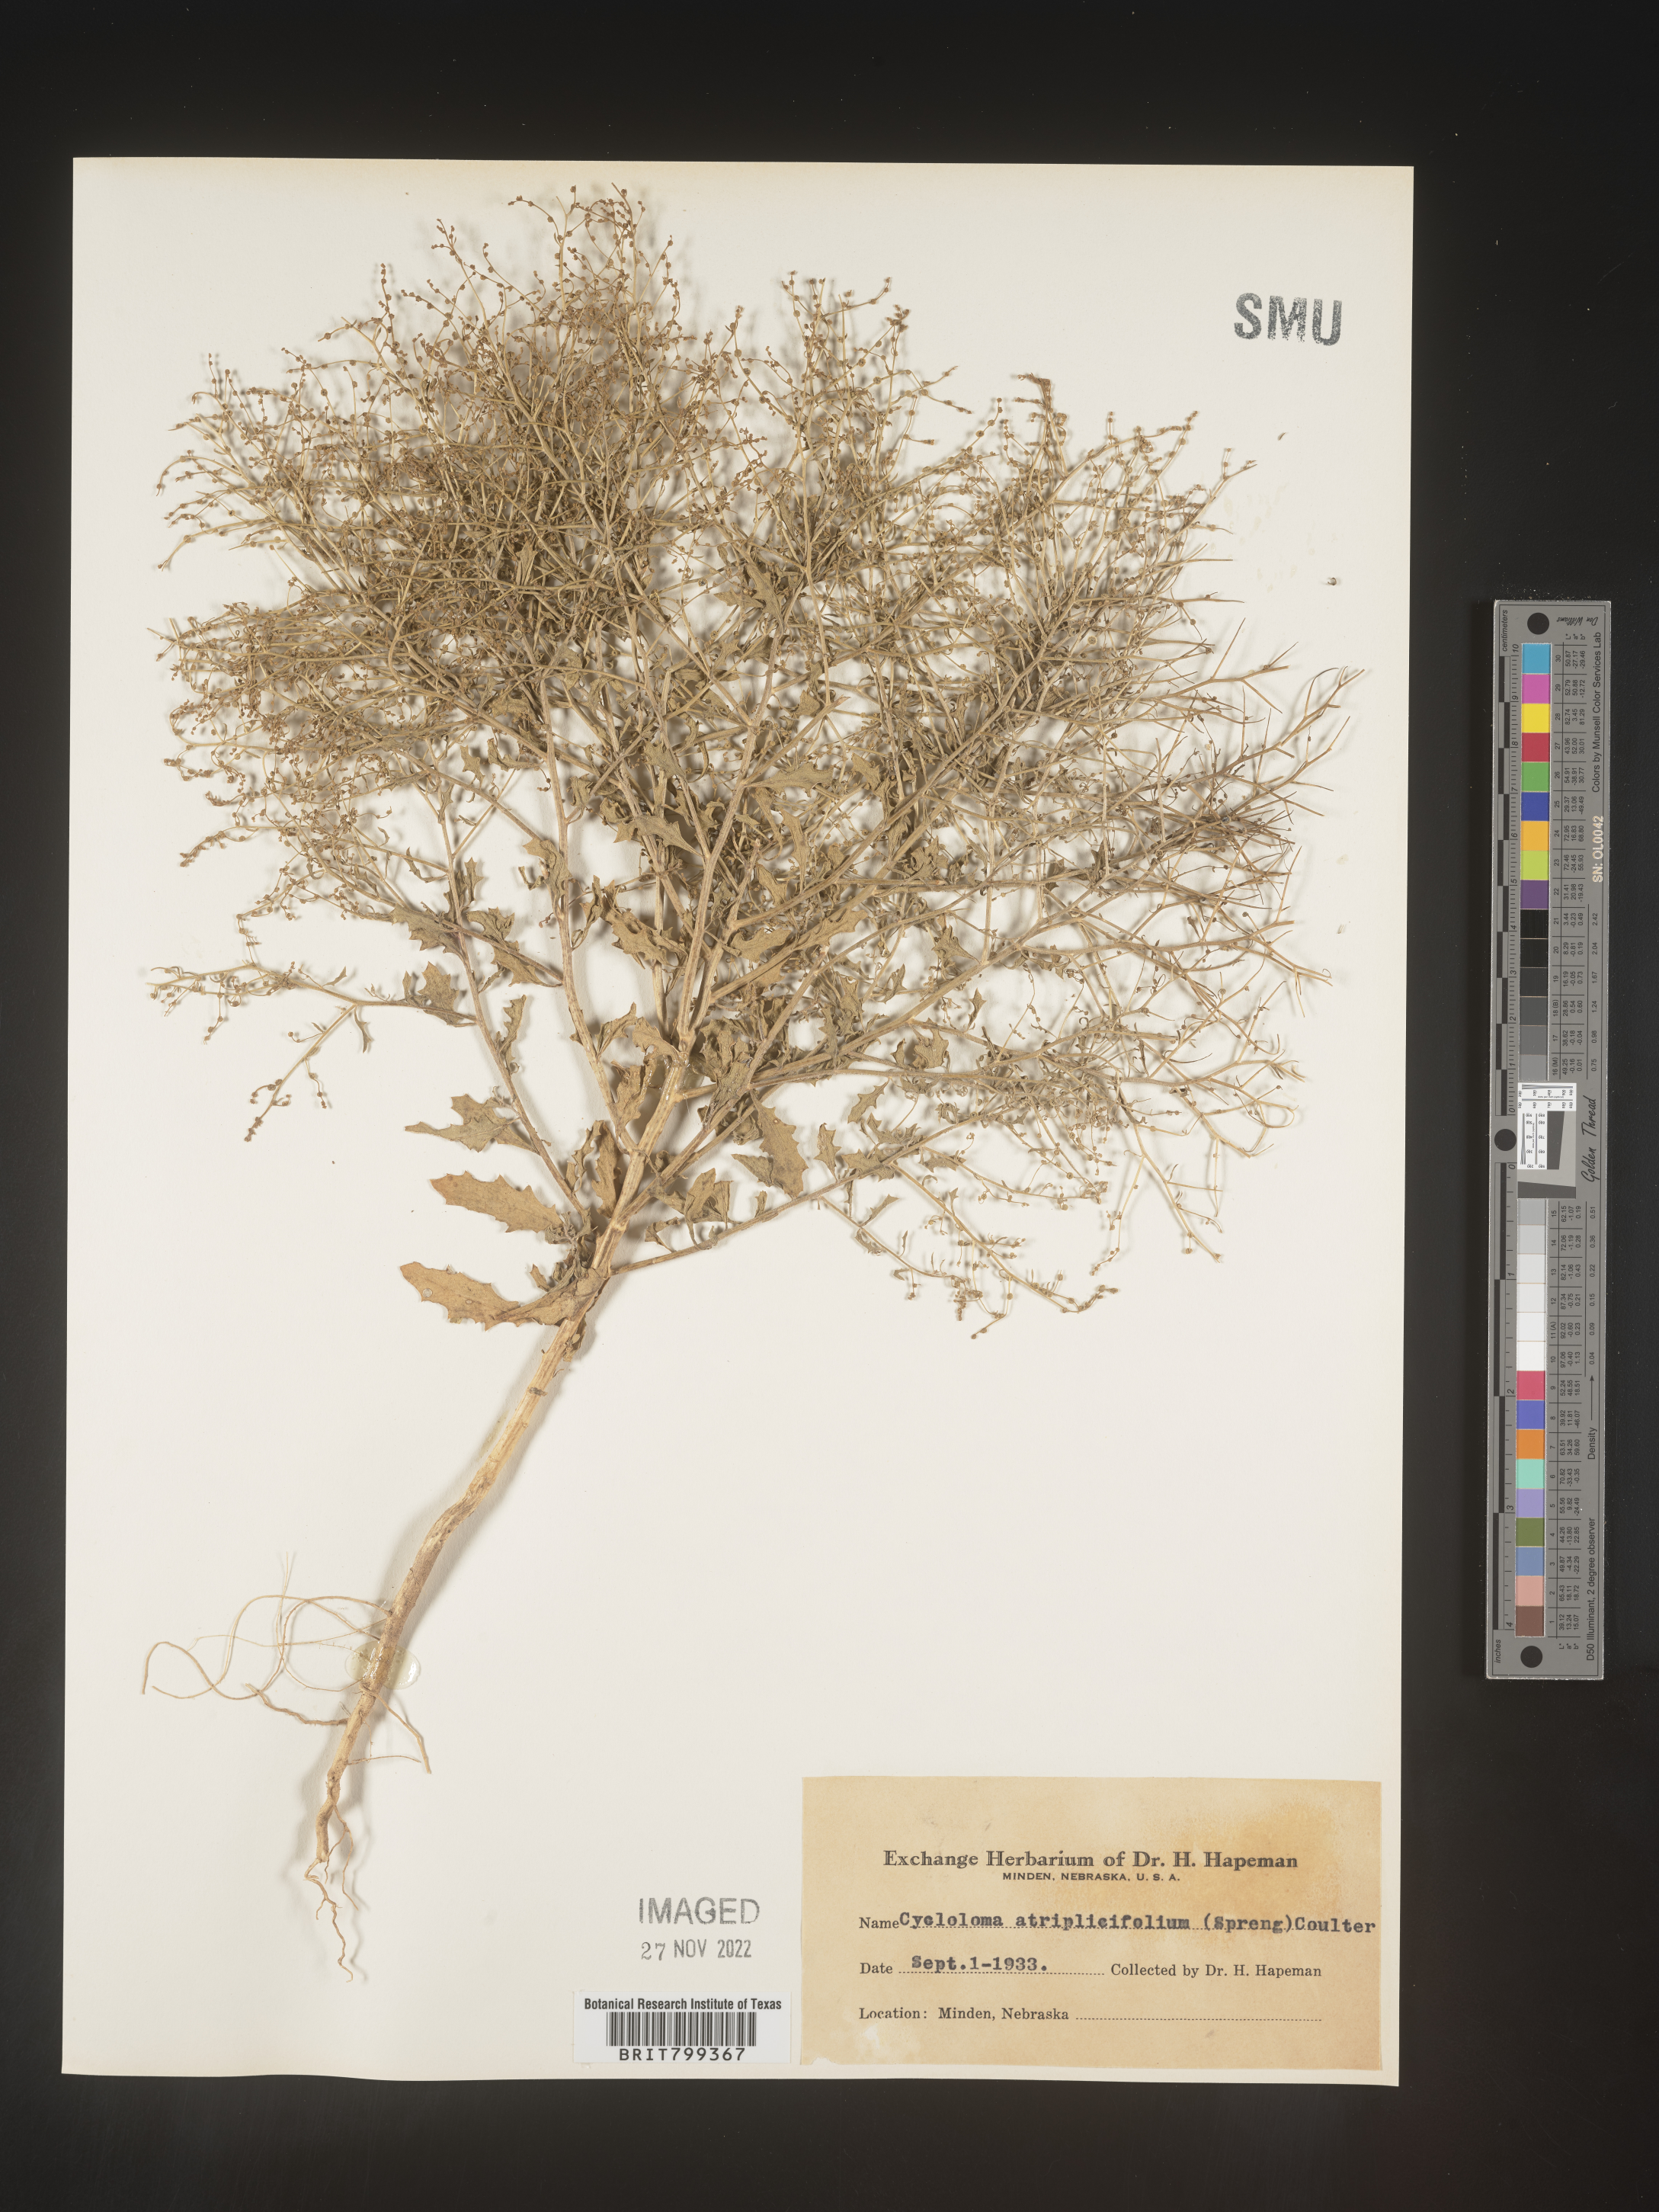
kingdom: Plantae
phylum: Tracheophyta
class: Magnoliopsida
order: Caryophyllales
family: Amaranthaceae
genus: Dysphania
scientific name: Dysphania atriplicifolia
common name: Plains tumbleweed
